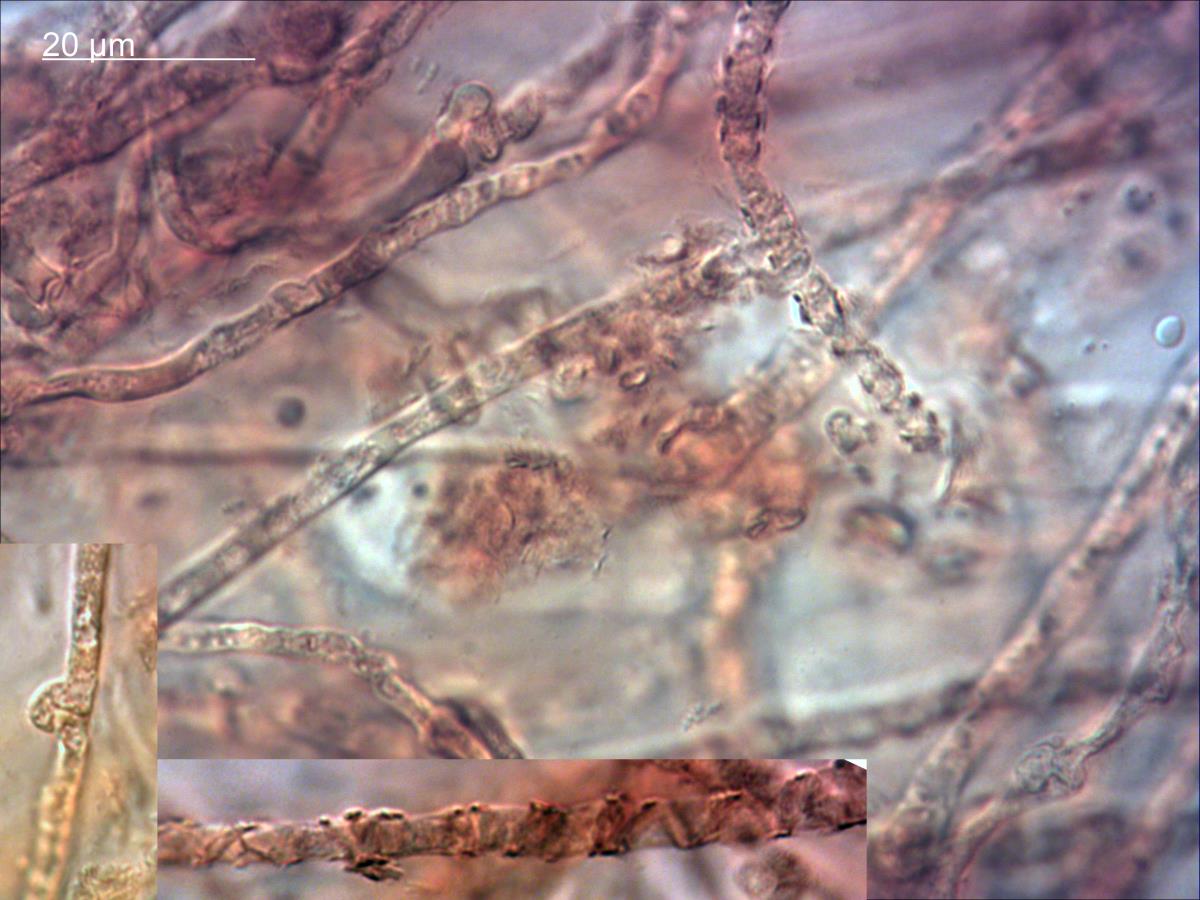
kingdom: Fungi
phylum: Basidiomycota
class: Agaricomycetes
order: Agaricales
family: Strophariaceae
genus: Pholiota
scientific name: Pholiota
